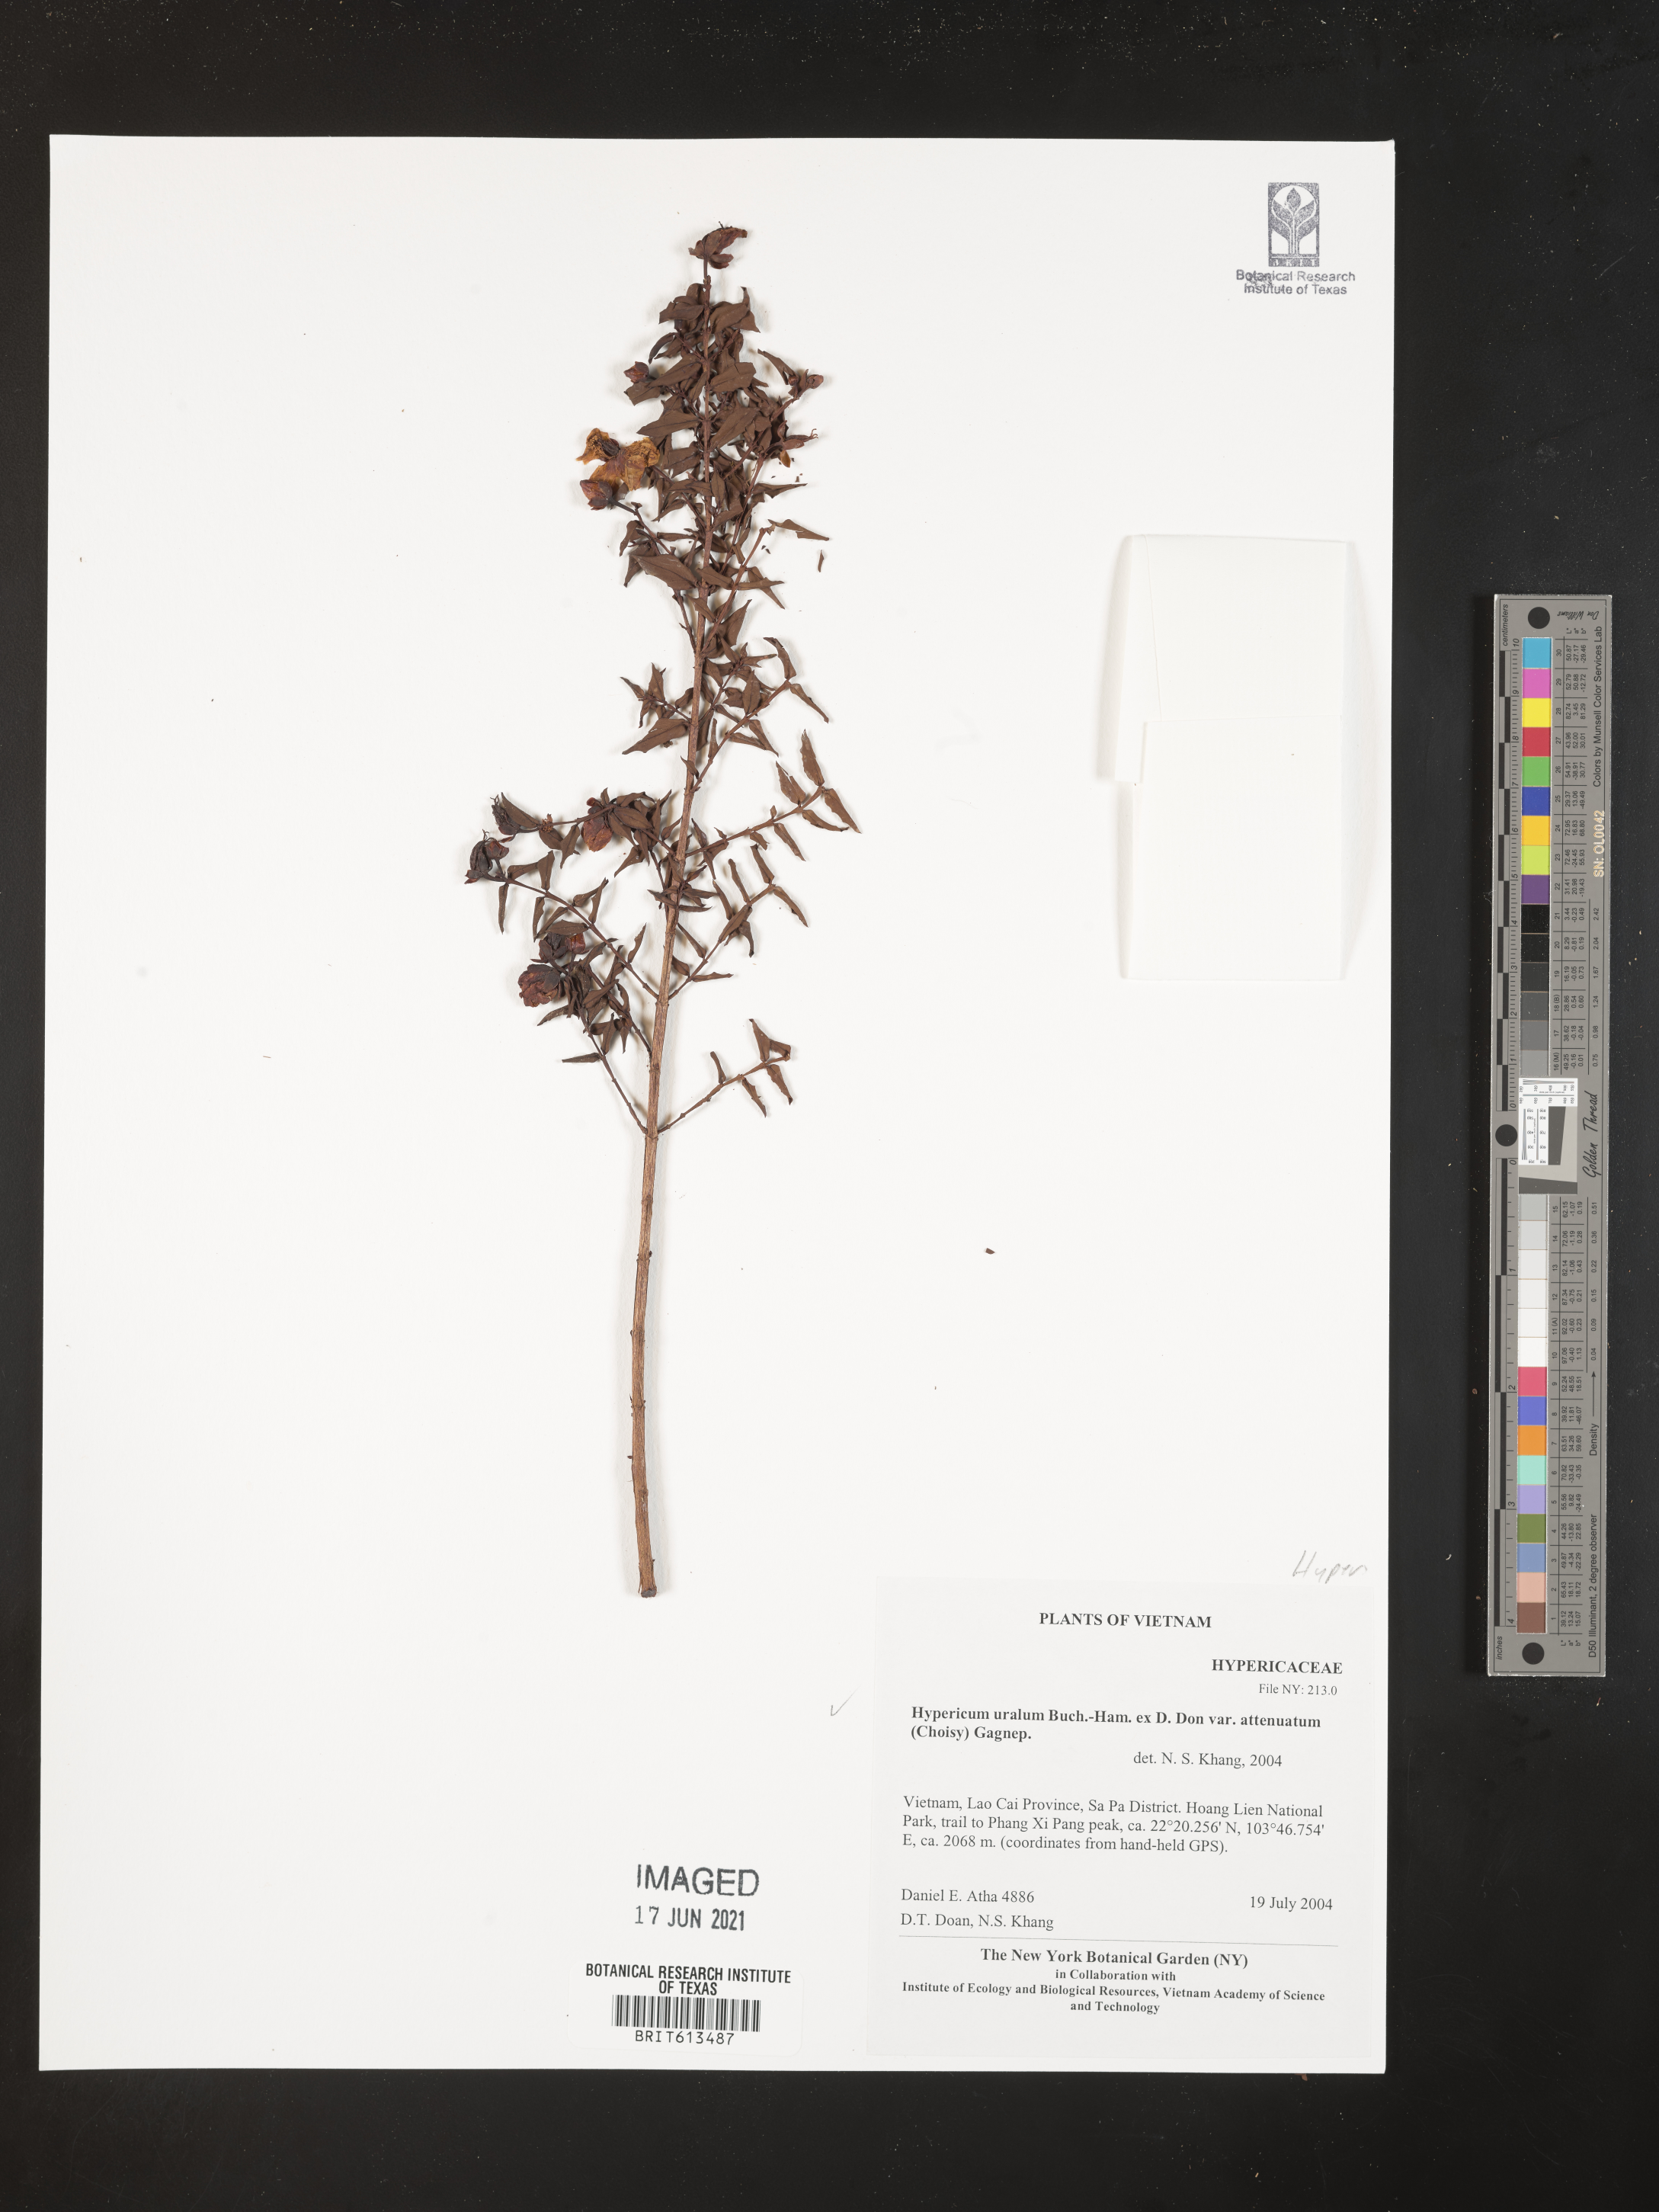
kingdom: Plantae
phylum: Tracheophyta
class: Magnoliopsida
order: Malpighiales
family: Hypericaceae
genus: Hypericum
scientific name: Hypericum uralum
